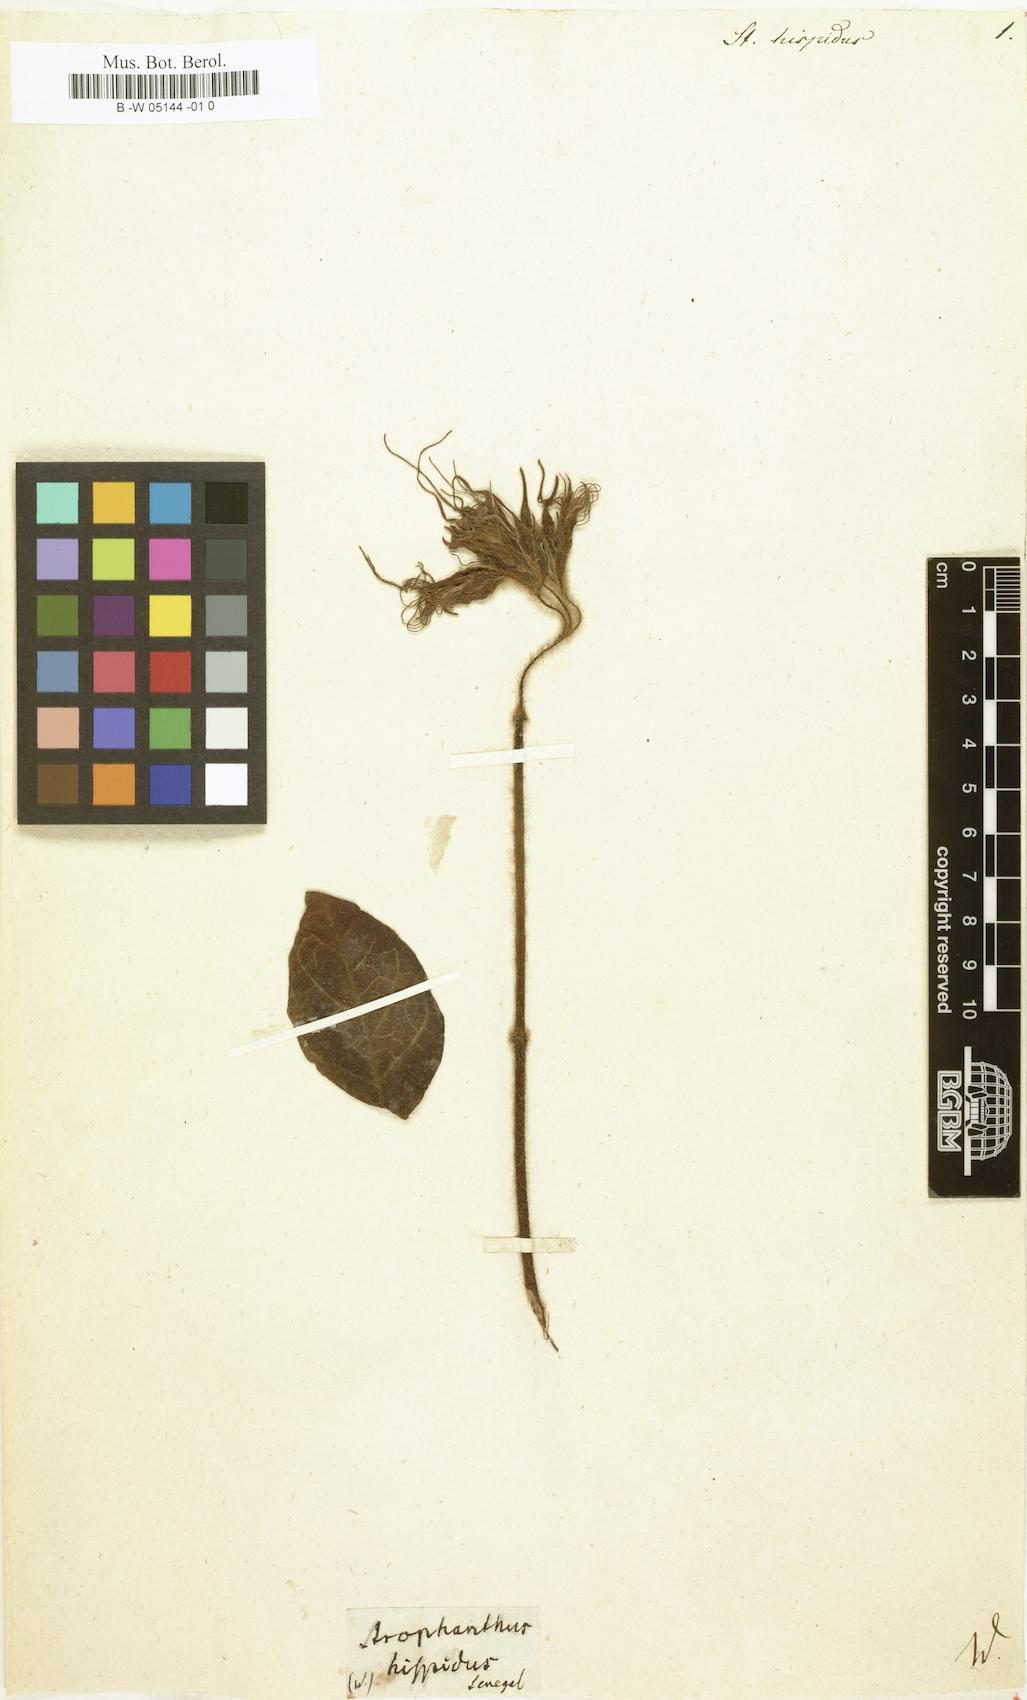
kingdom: Plantae
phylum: Tracheophyta
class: Magnoliopsida
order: Gentianales
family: Apocynaceae
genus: Strophanthus
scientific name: Strophanthus hispidus
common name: Hairy strophanthus
